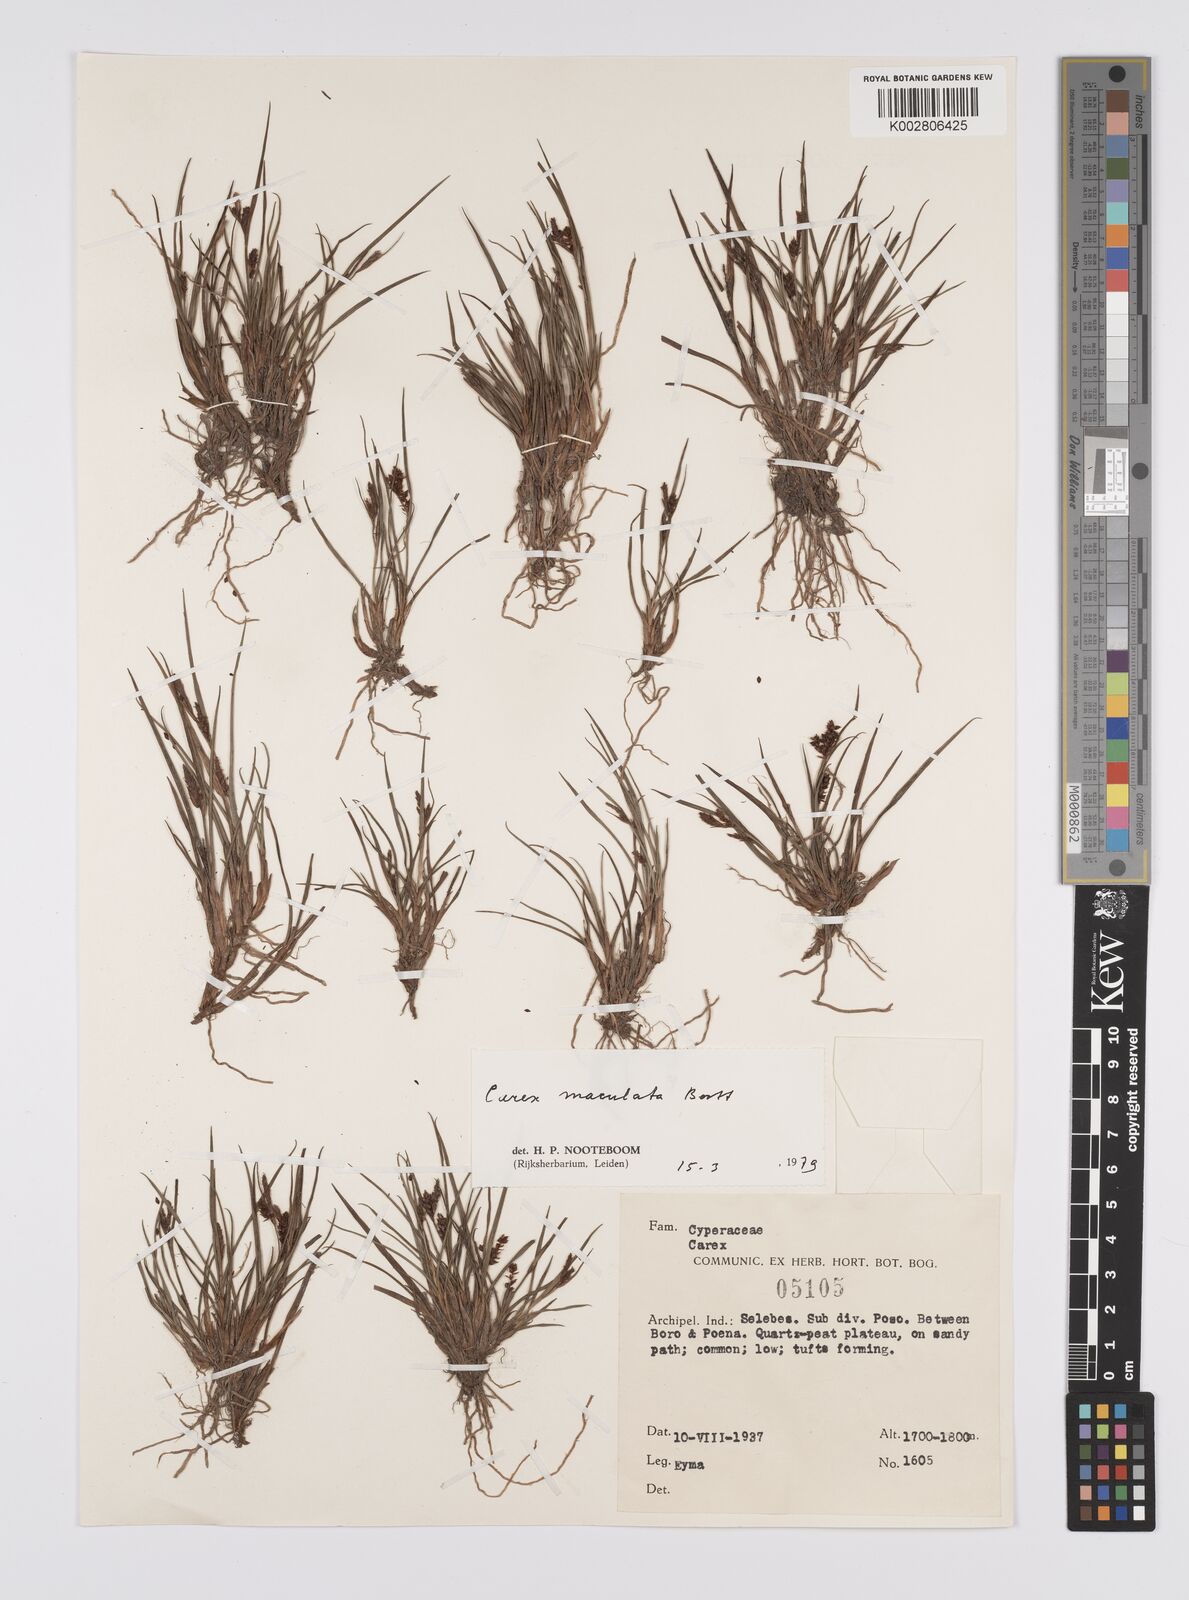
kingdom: Plantae
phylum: Tracheophyta
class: Liliopsida
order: Poales
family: Cyperaceae
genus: Carex
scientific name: Carex maculata
